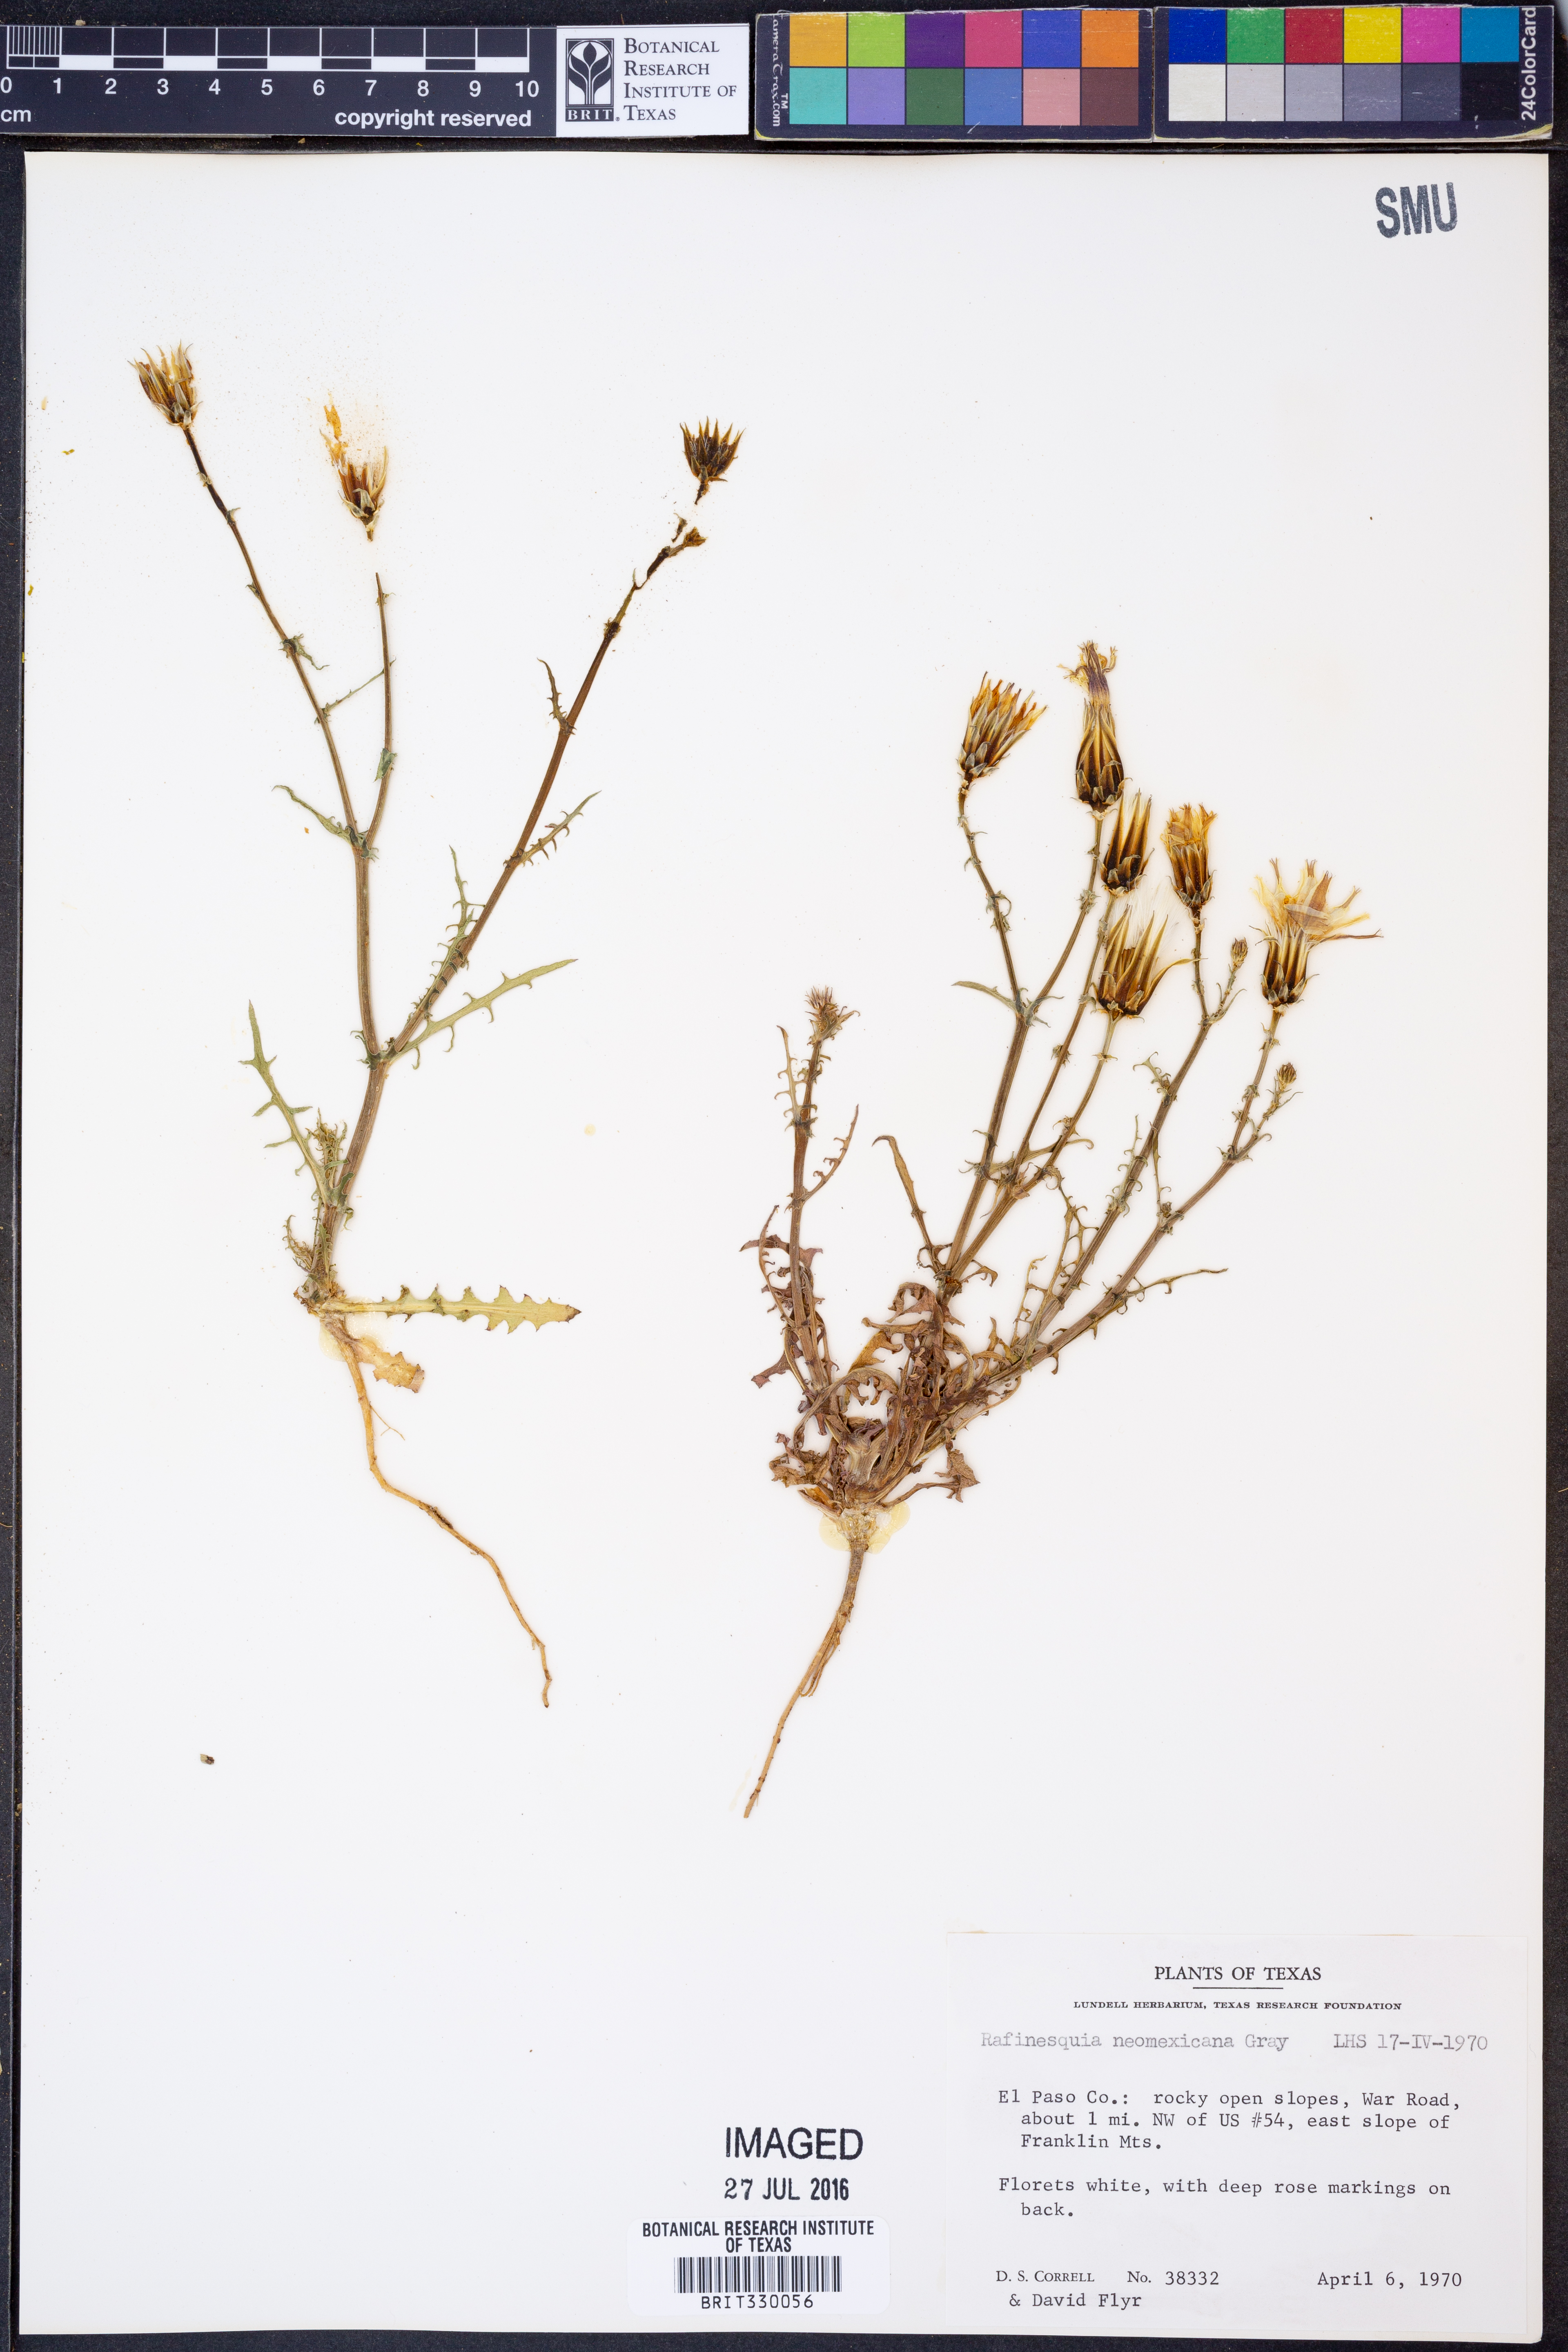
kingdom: Plantae
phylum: Tracheophyta
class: Magnoliopsida
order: Asterales
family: Asteraceae
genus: Rafinesquia
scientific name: Rafinesquia neomexicana
